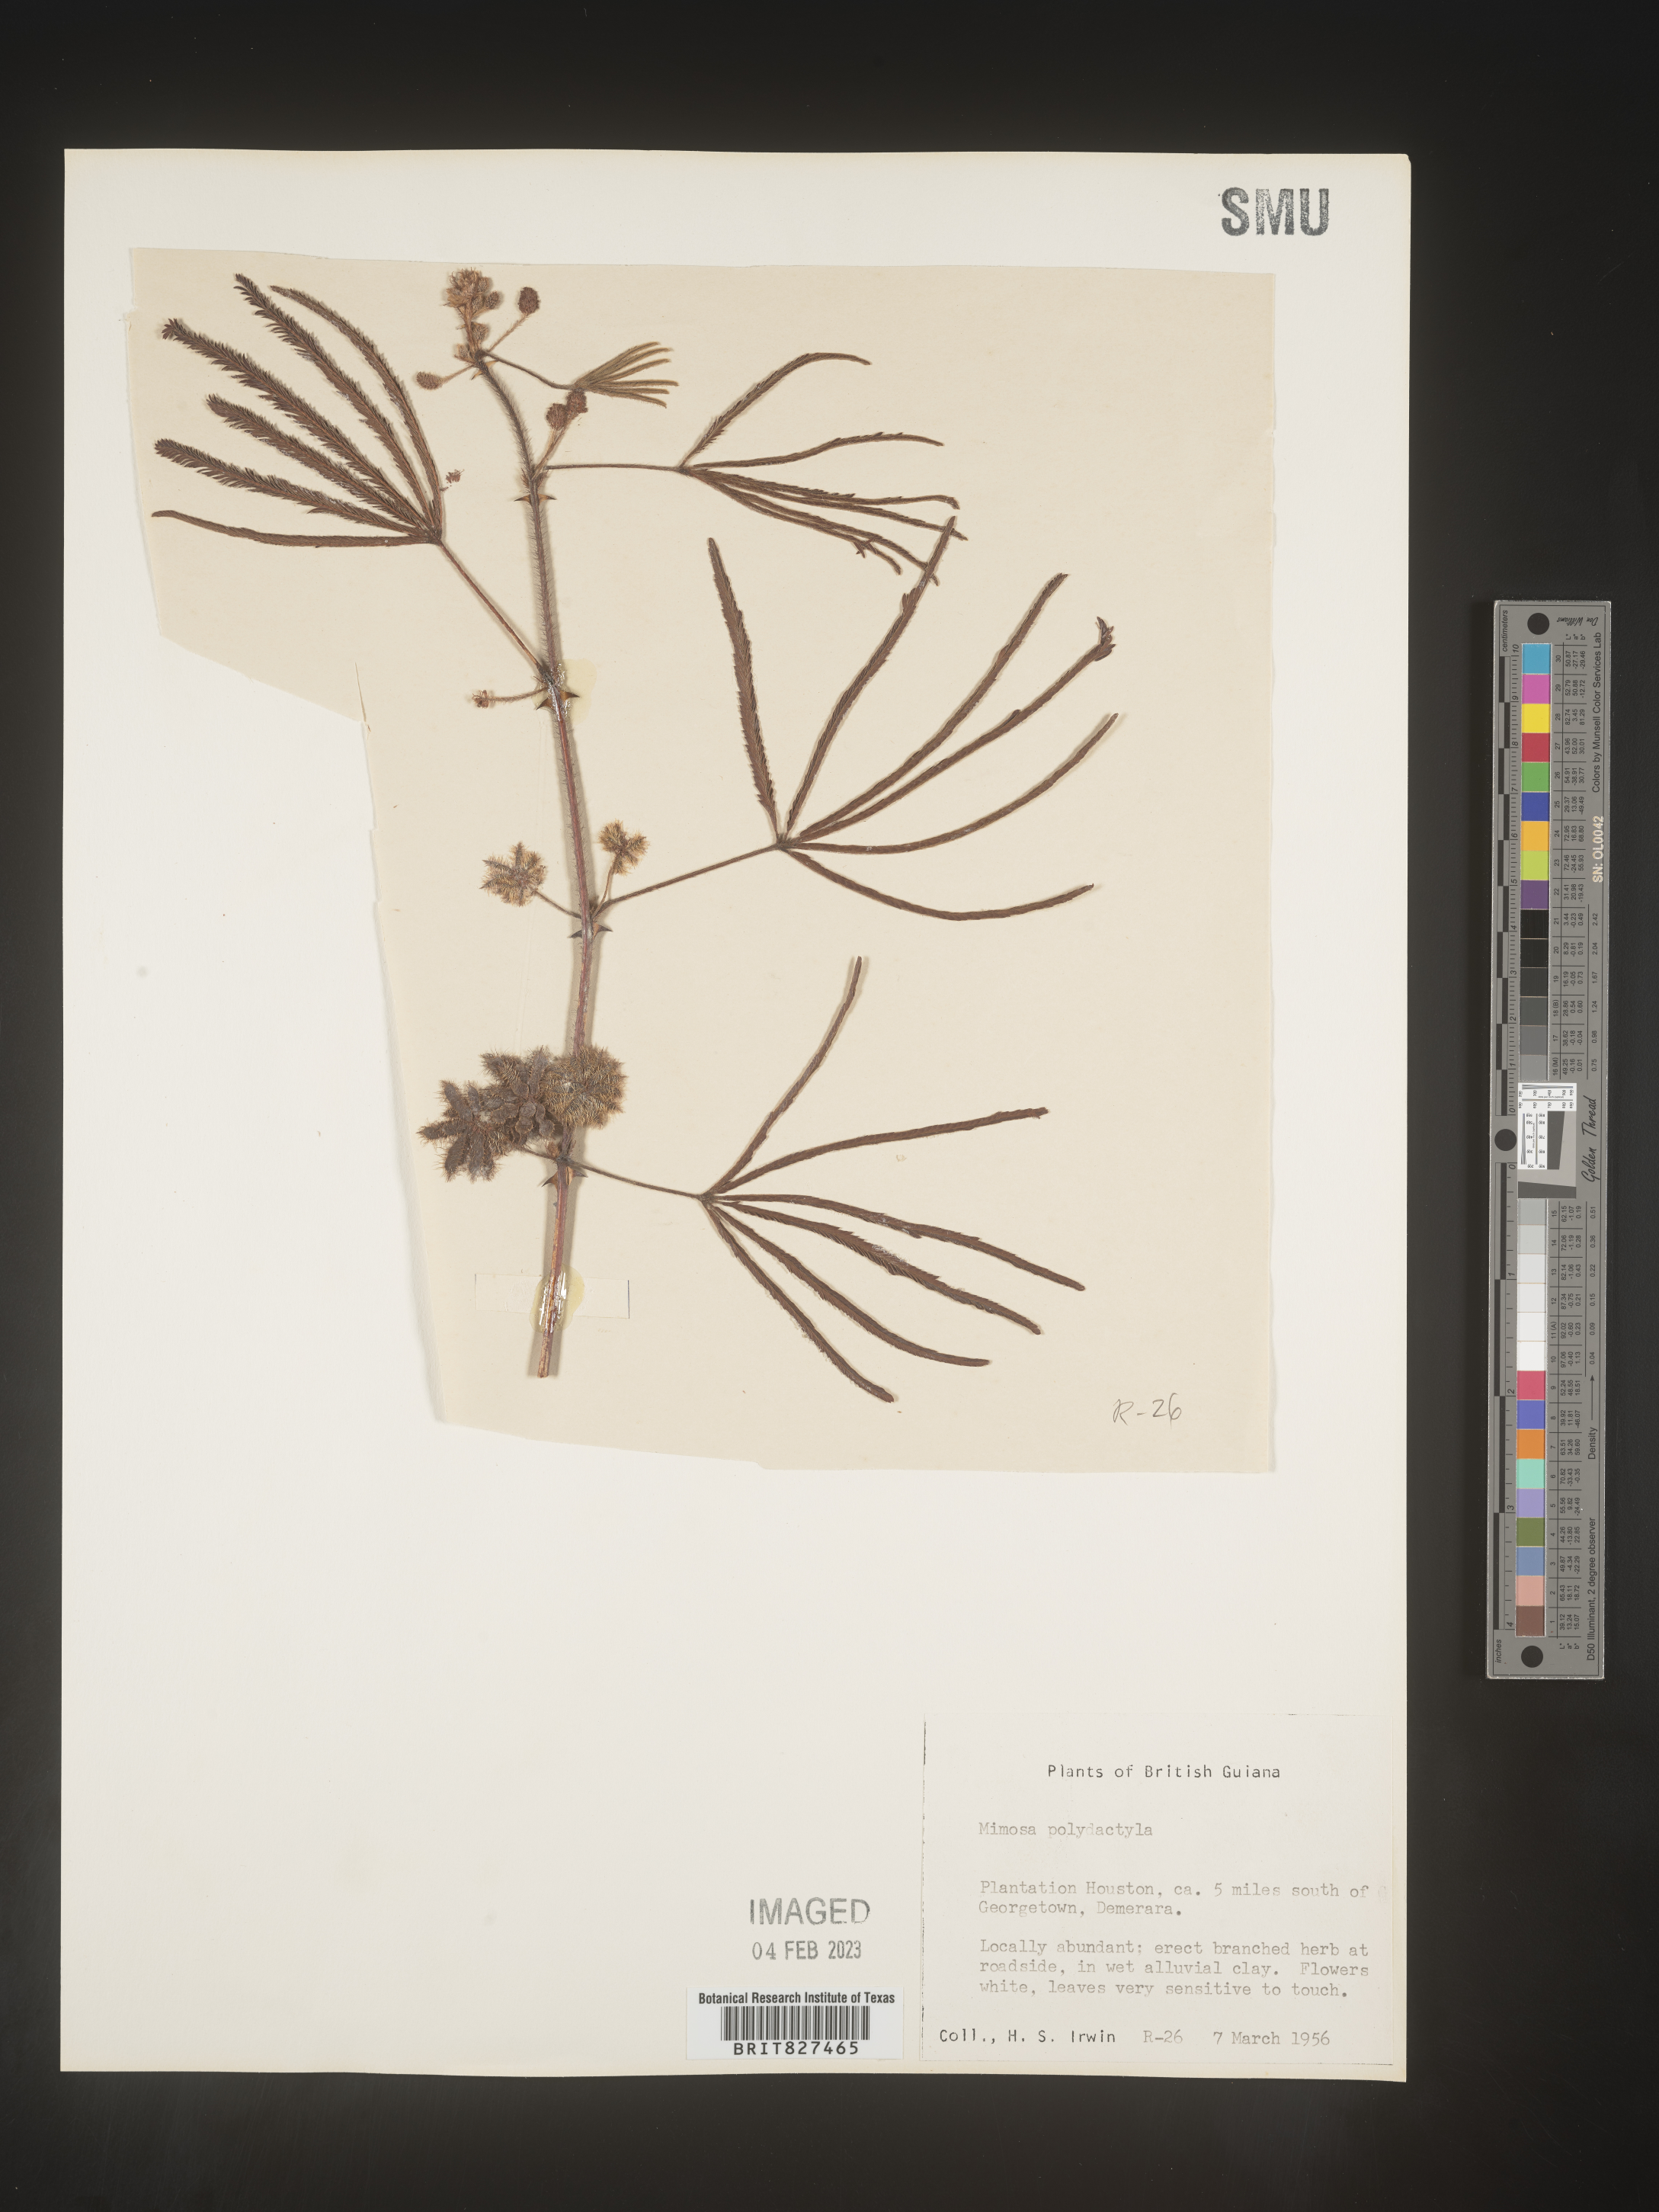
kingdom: Plantae
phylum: Tracheophyta
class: Magnoliopsida
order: Fabales
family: Fabaceae
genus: Mimosa
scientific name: Mimosa
